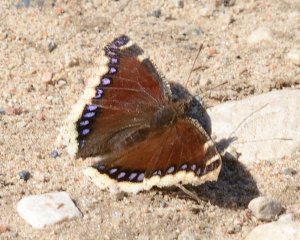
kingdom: Animalia
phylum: Arthropoda
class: Insecta
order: Lepidoptera
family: Nymphalidae
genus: Nymphalis
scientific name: Nymphalis antiopa
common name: Mourning Cloak
